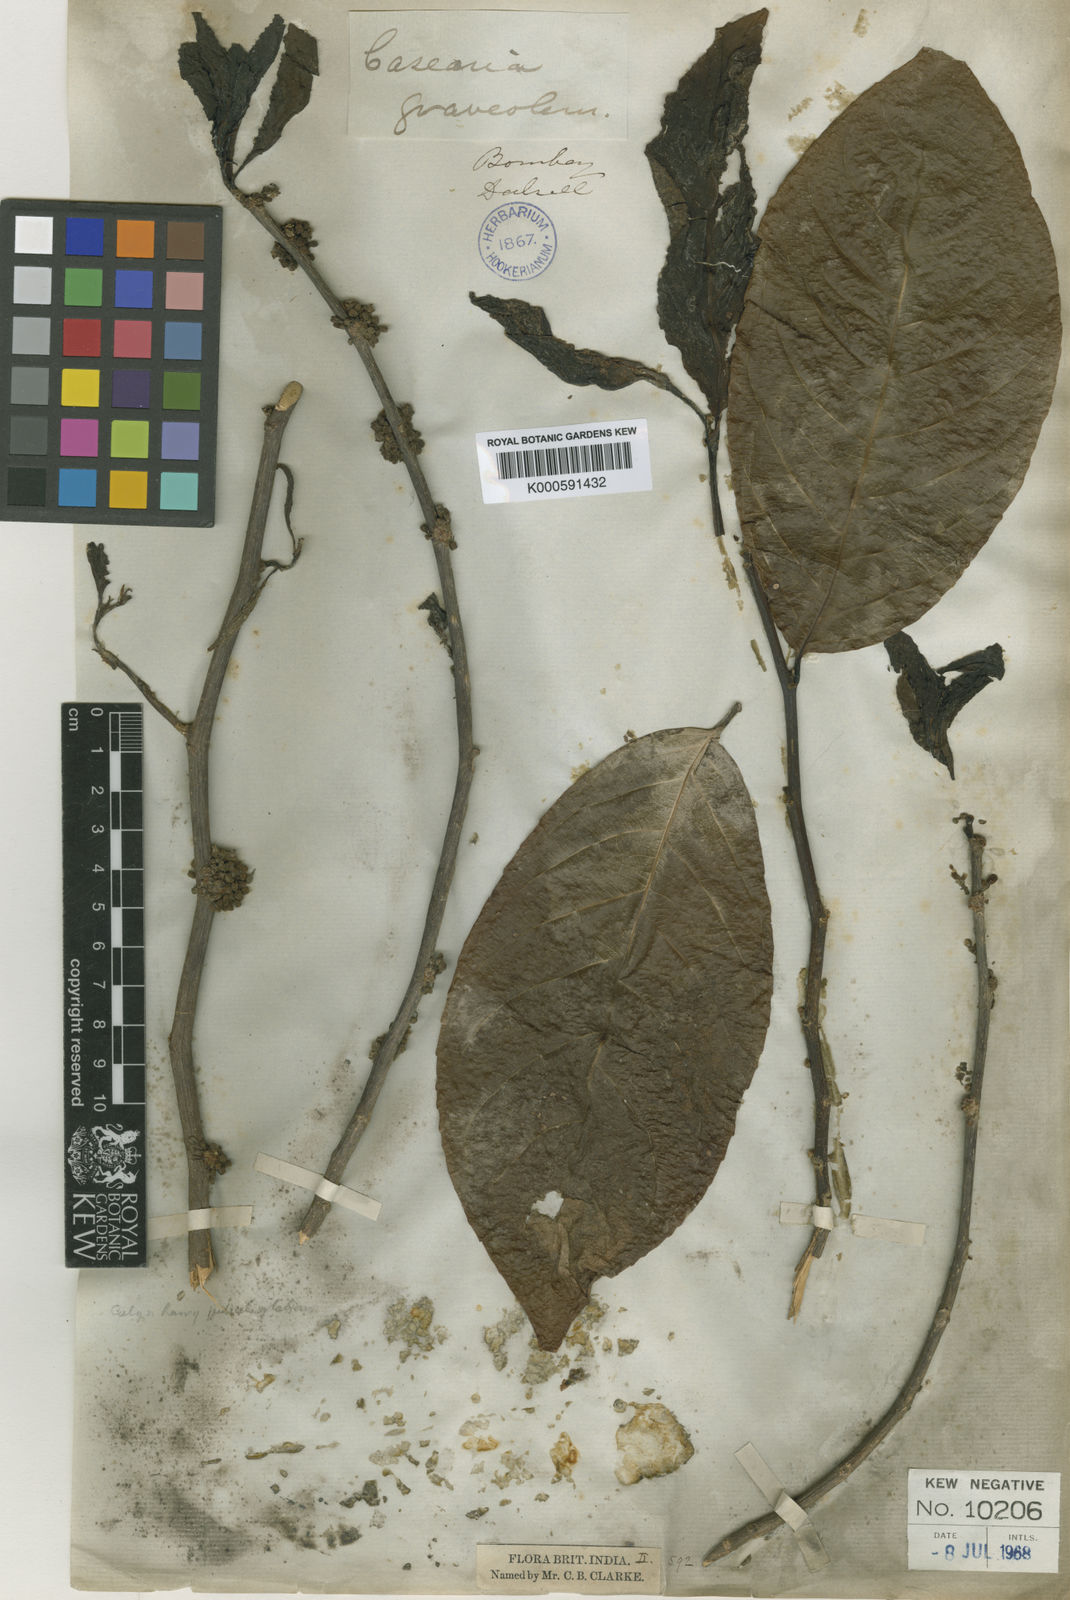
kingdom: Plantae
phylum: Tracheophyta
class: Magnoliopsida
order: Malpighiales
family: Salicaceae
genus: Casearia
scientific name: Casearia graveolens
